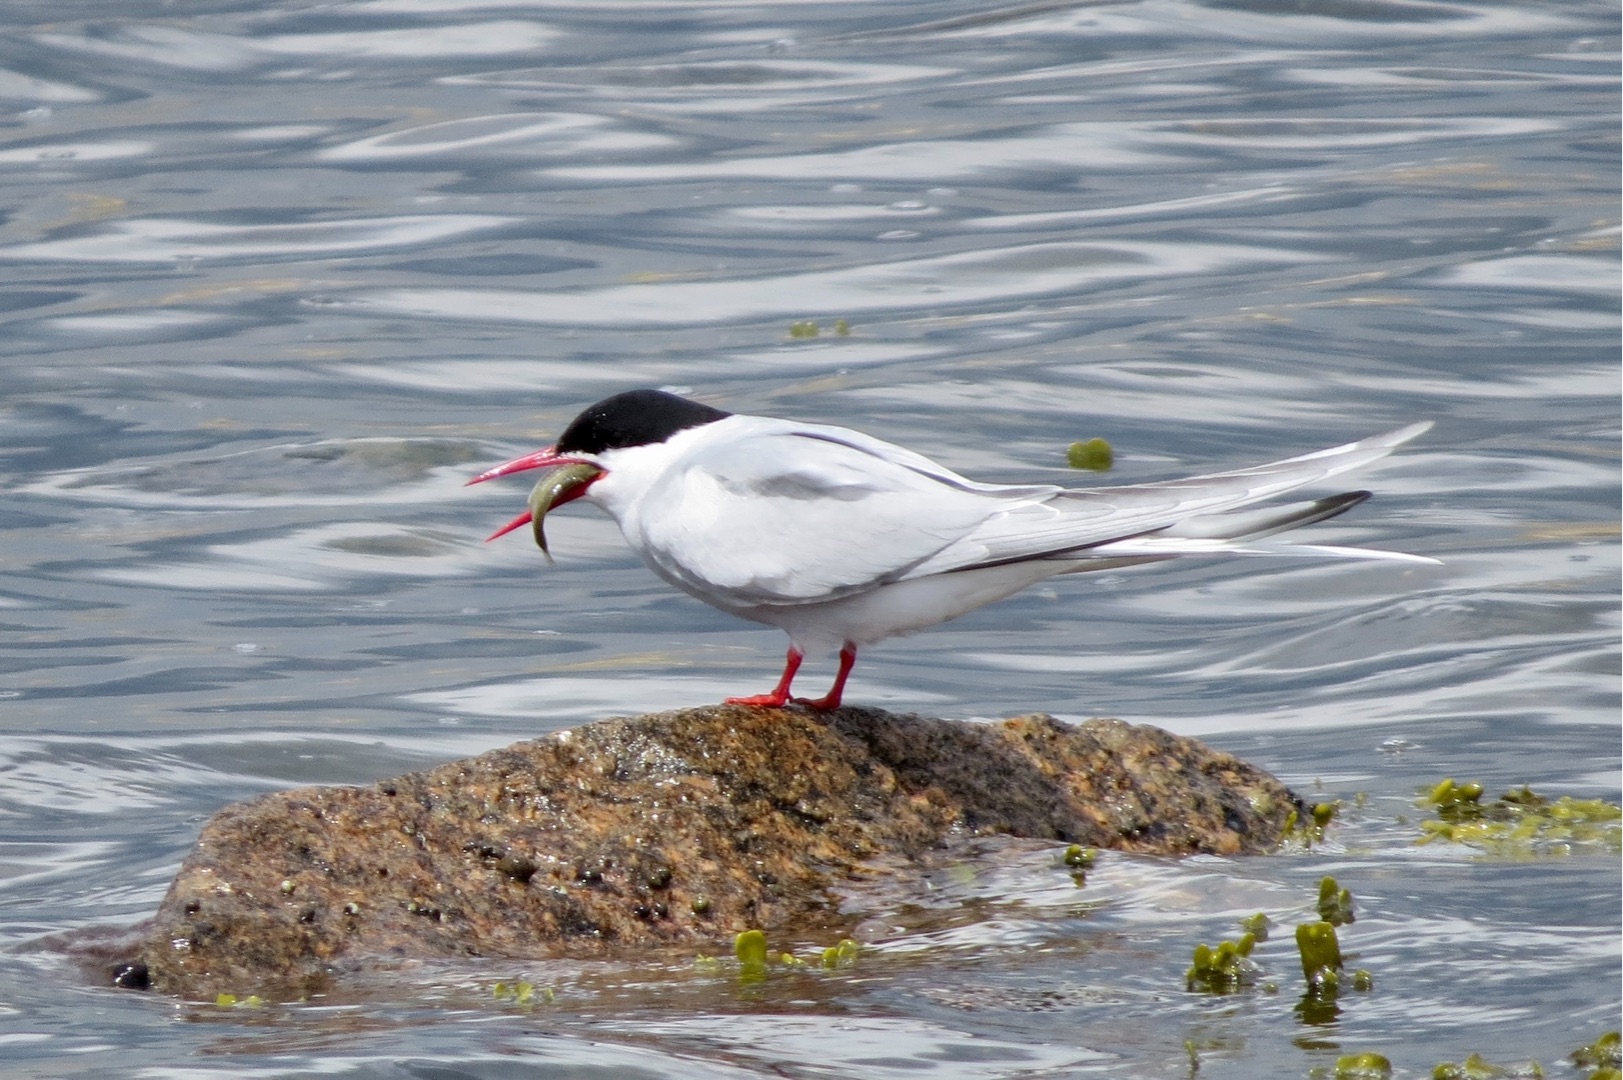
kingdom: Animalia
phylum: Chordata
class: Aves
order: Charadriiformes
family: Laridae
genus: Sterna
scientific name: Sterna paradisaea
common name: Havterne
